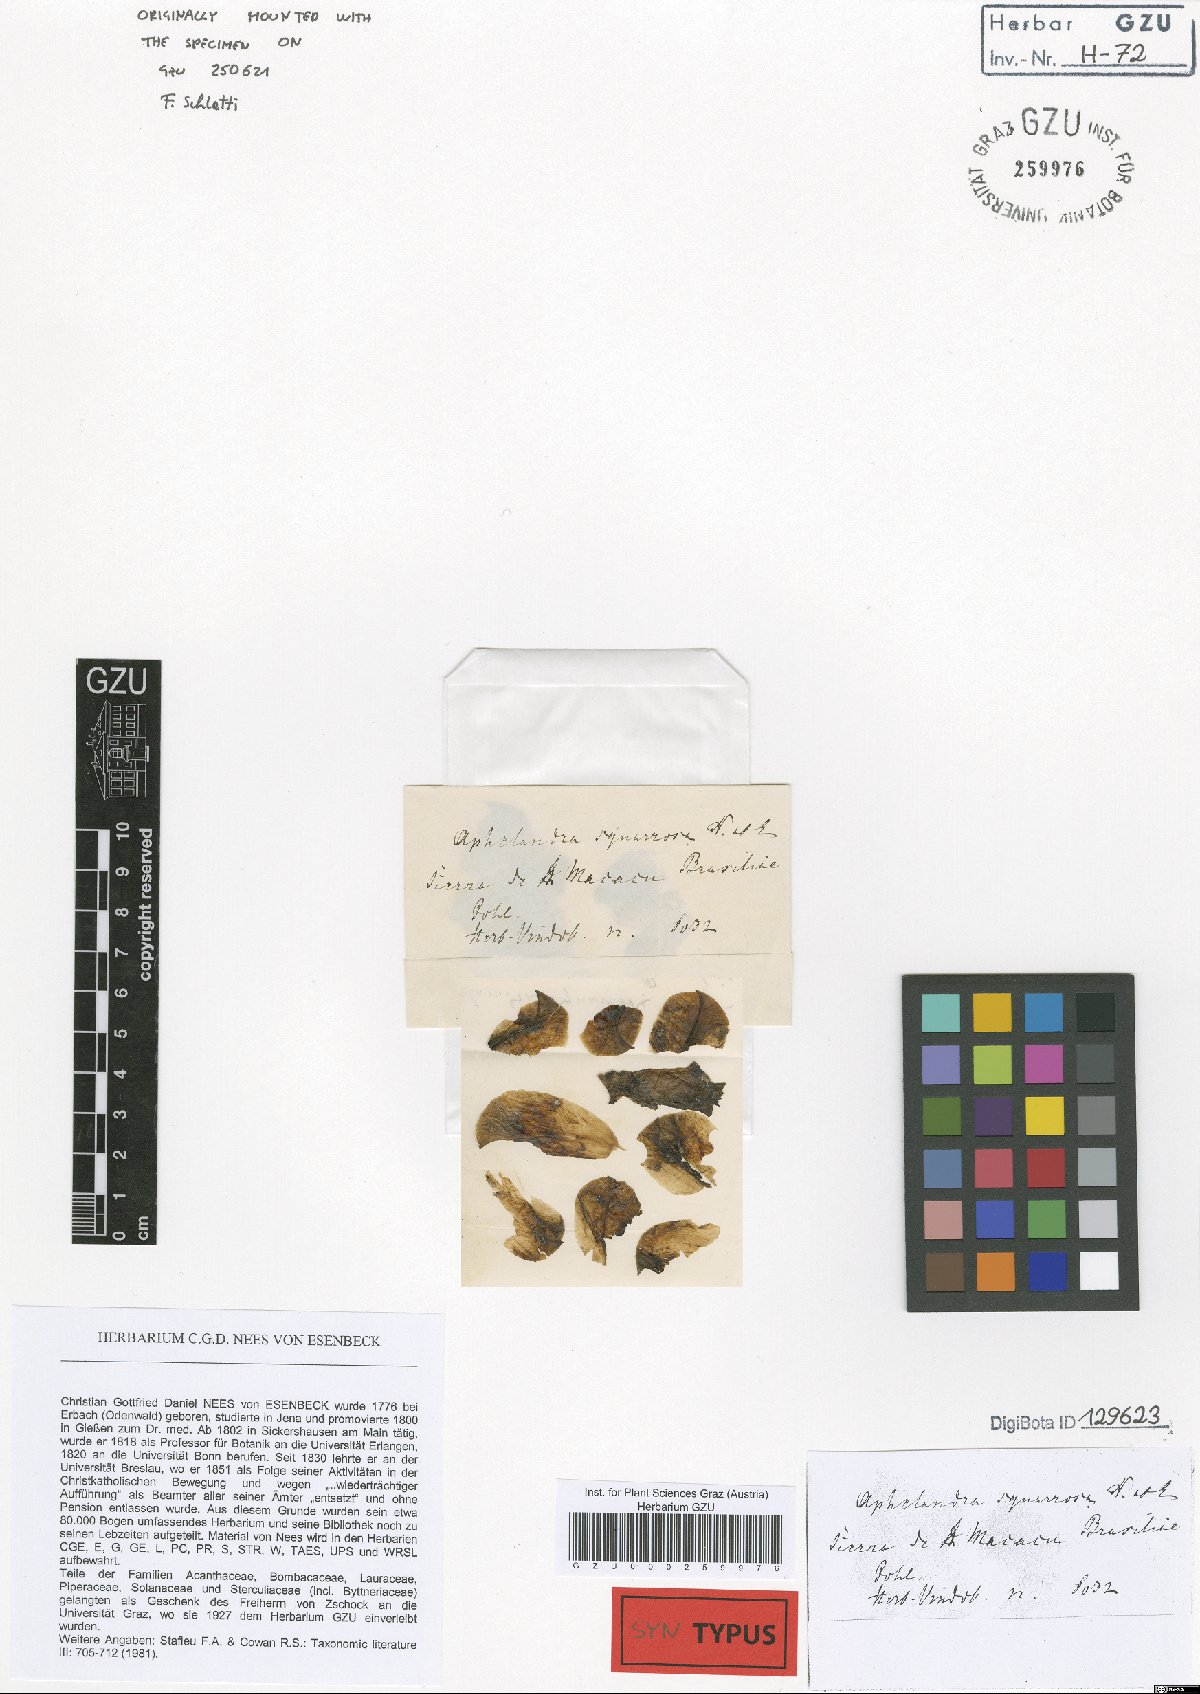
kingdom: Plantae
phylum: Tracheophyta
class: Magnoliopsida
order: Lamiales
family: Acanthaceae
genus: Aphelandra
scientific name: Aphelandra squarrosa
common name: Saffron spike
